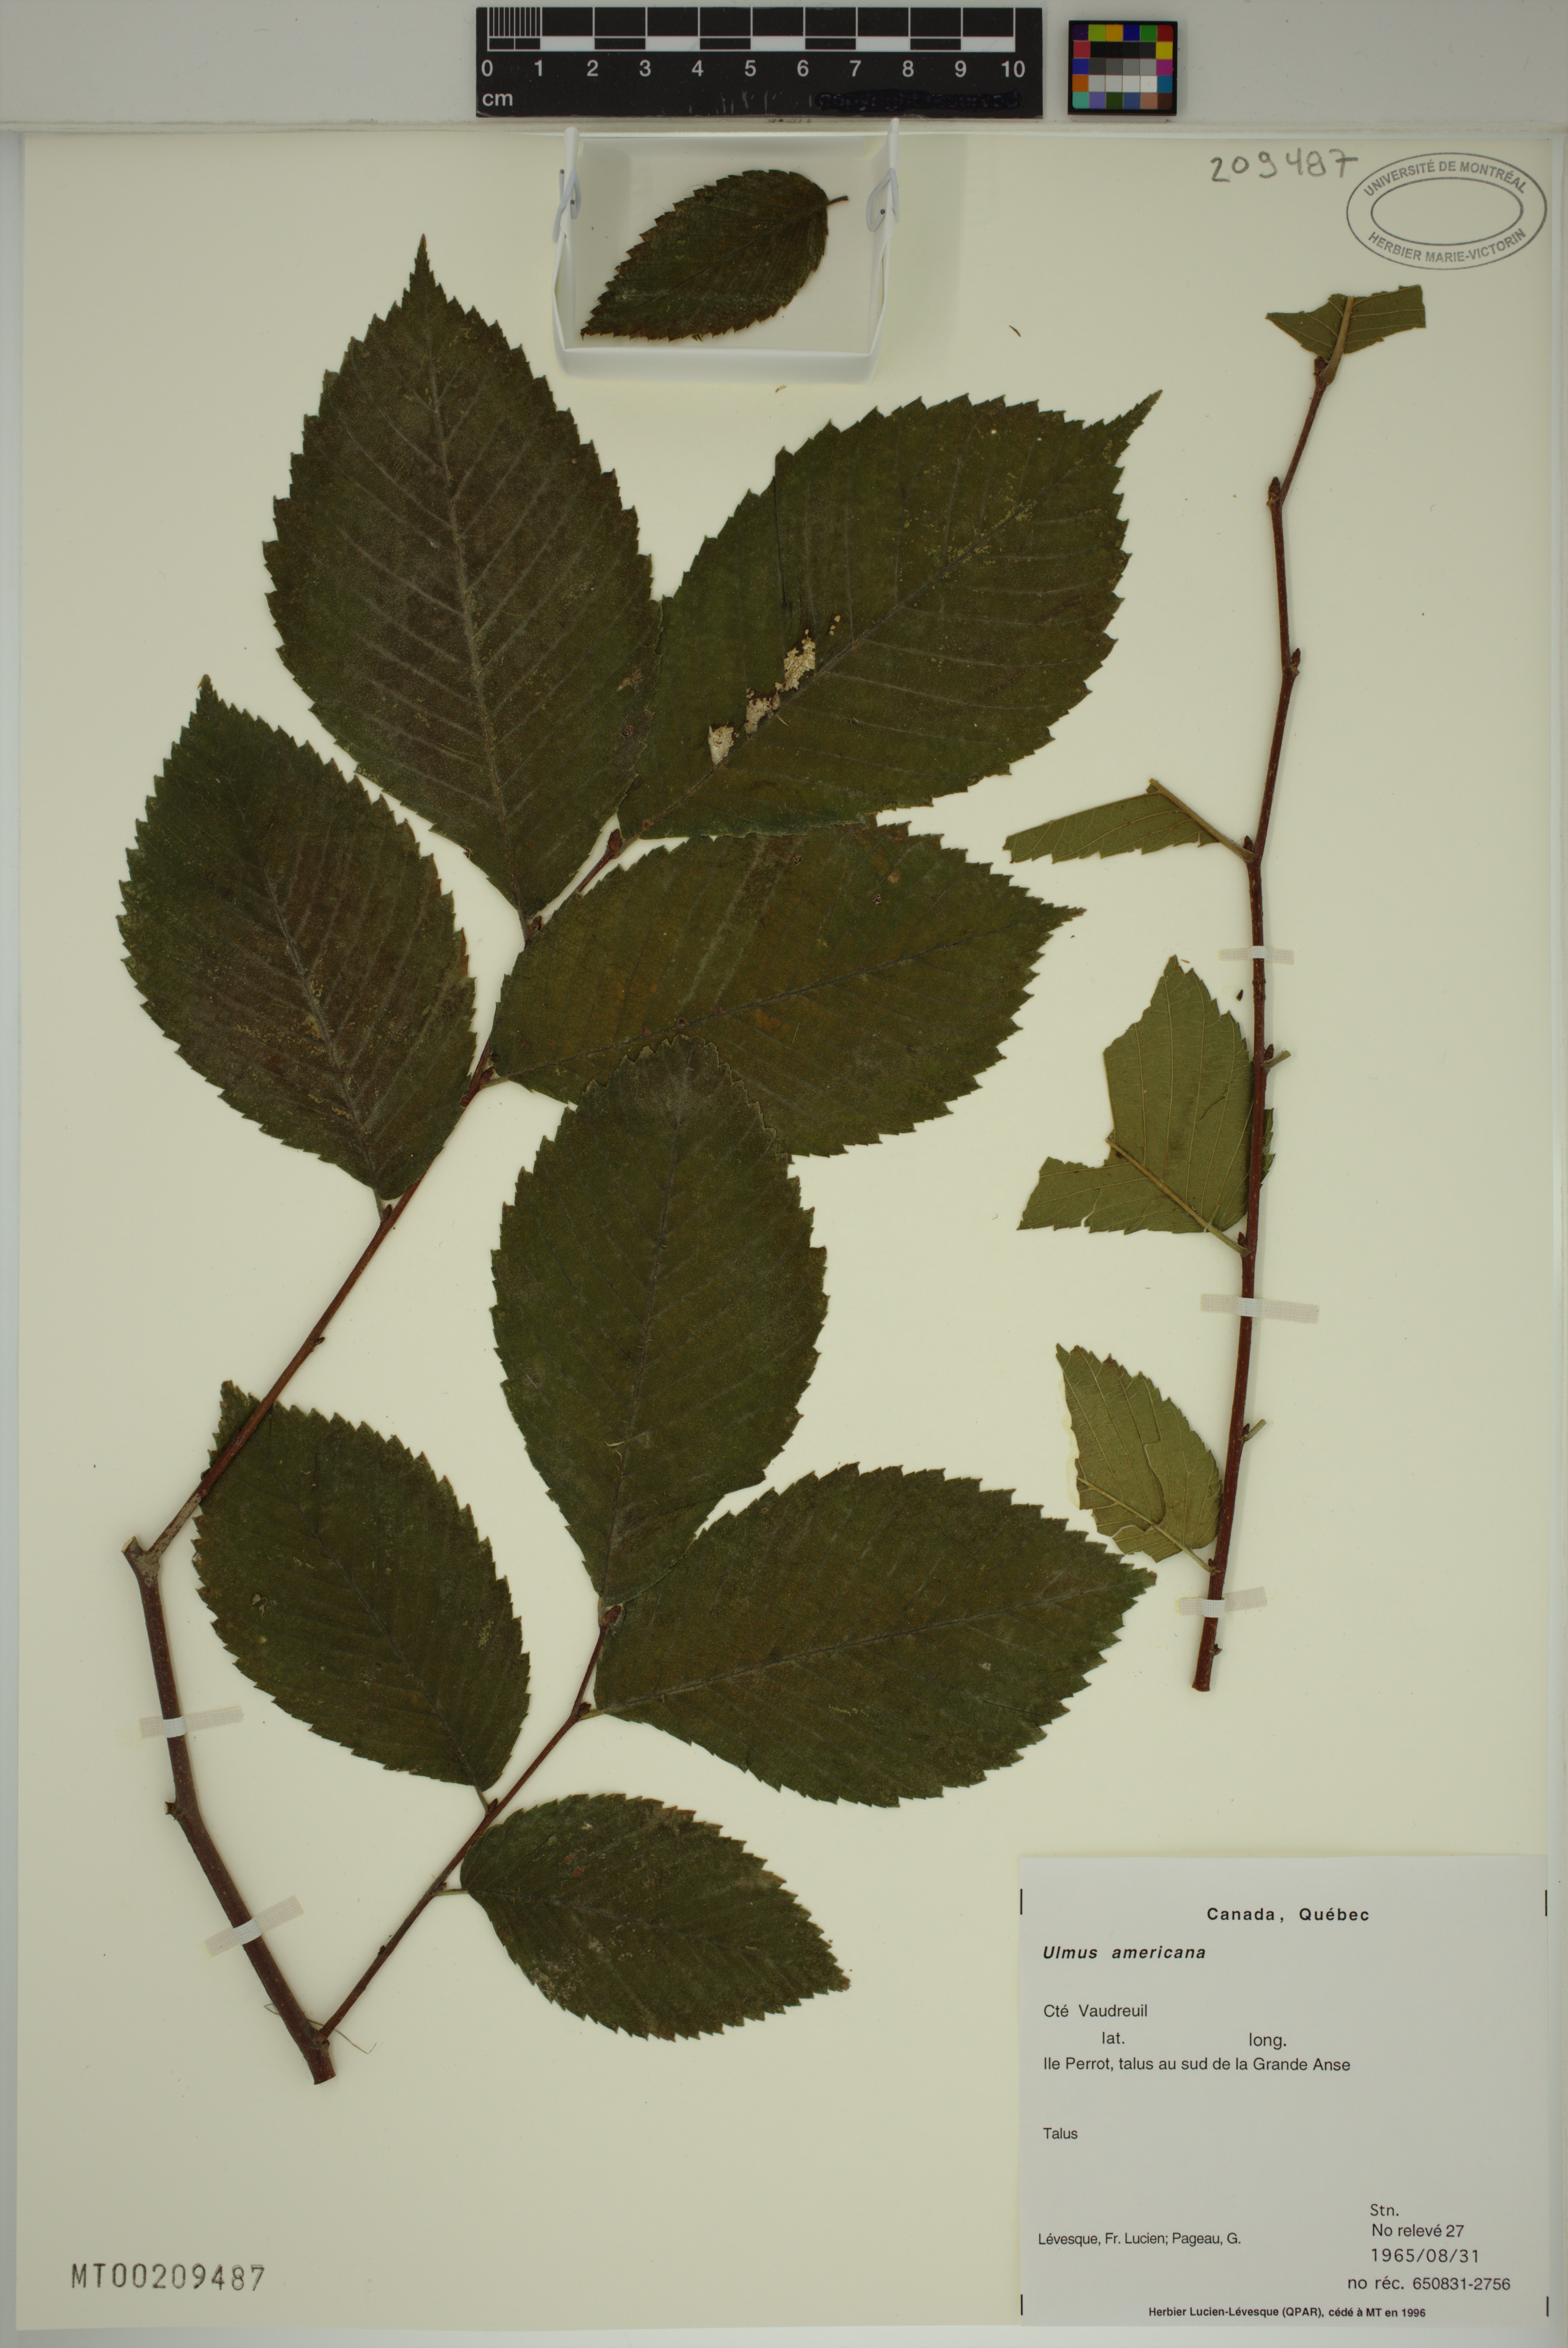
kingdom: Plantae
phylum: Tracheophyta
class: Magnoliopsida
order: Rosales
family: Ulmaceae
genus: Ulmus
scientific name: Ulmus americana
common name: American elm
